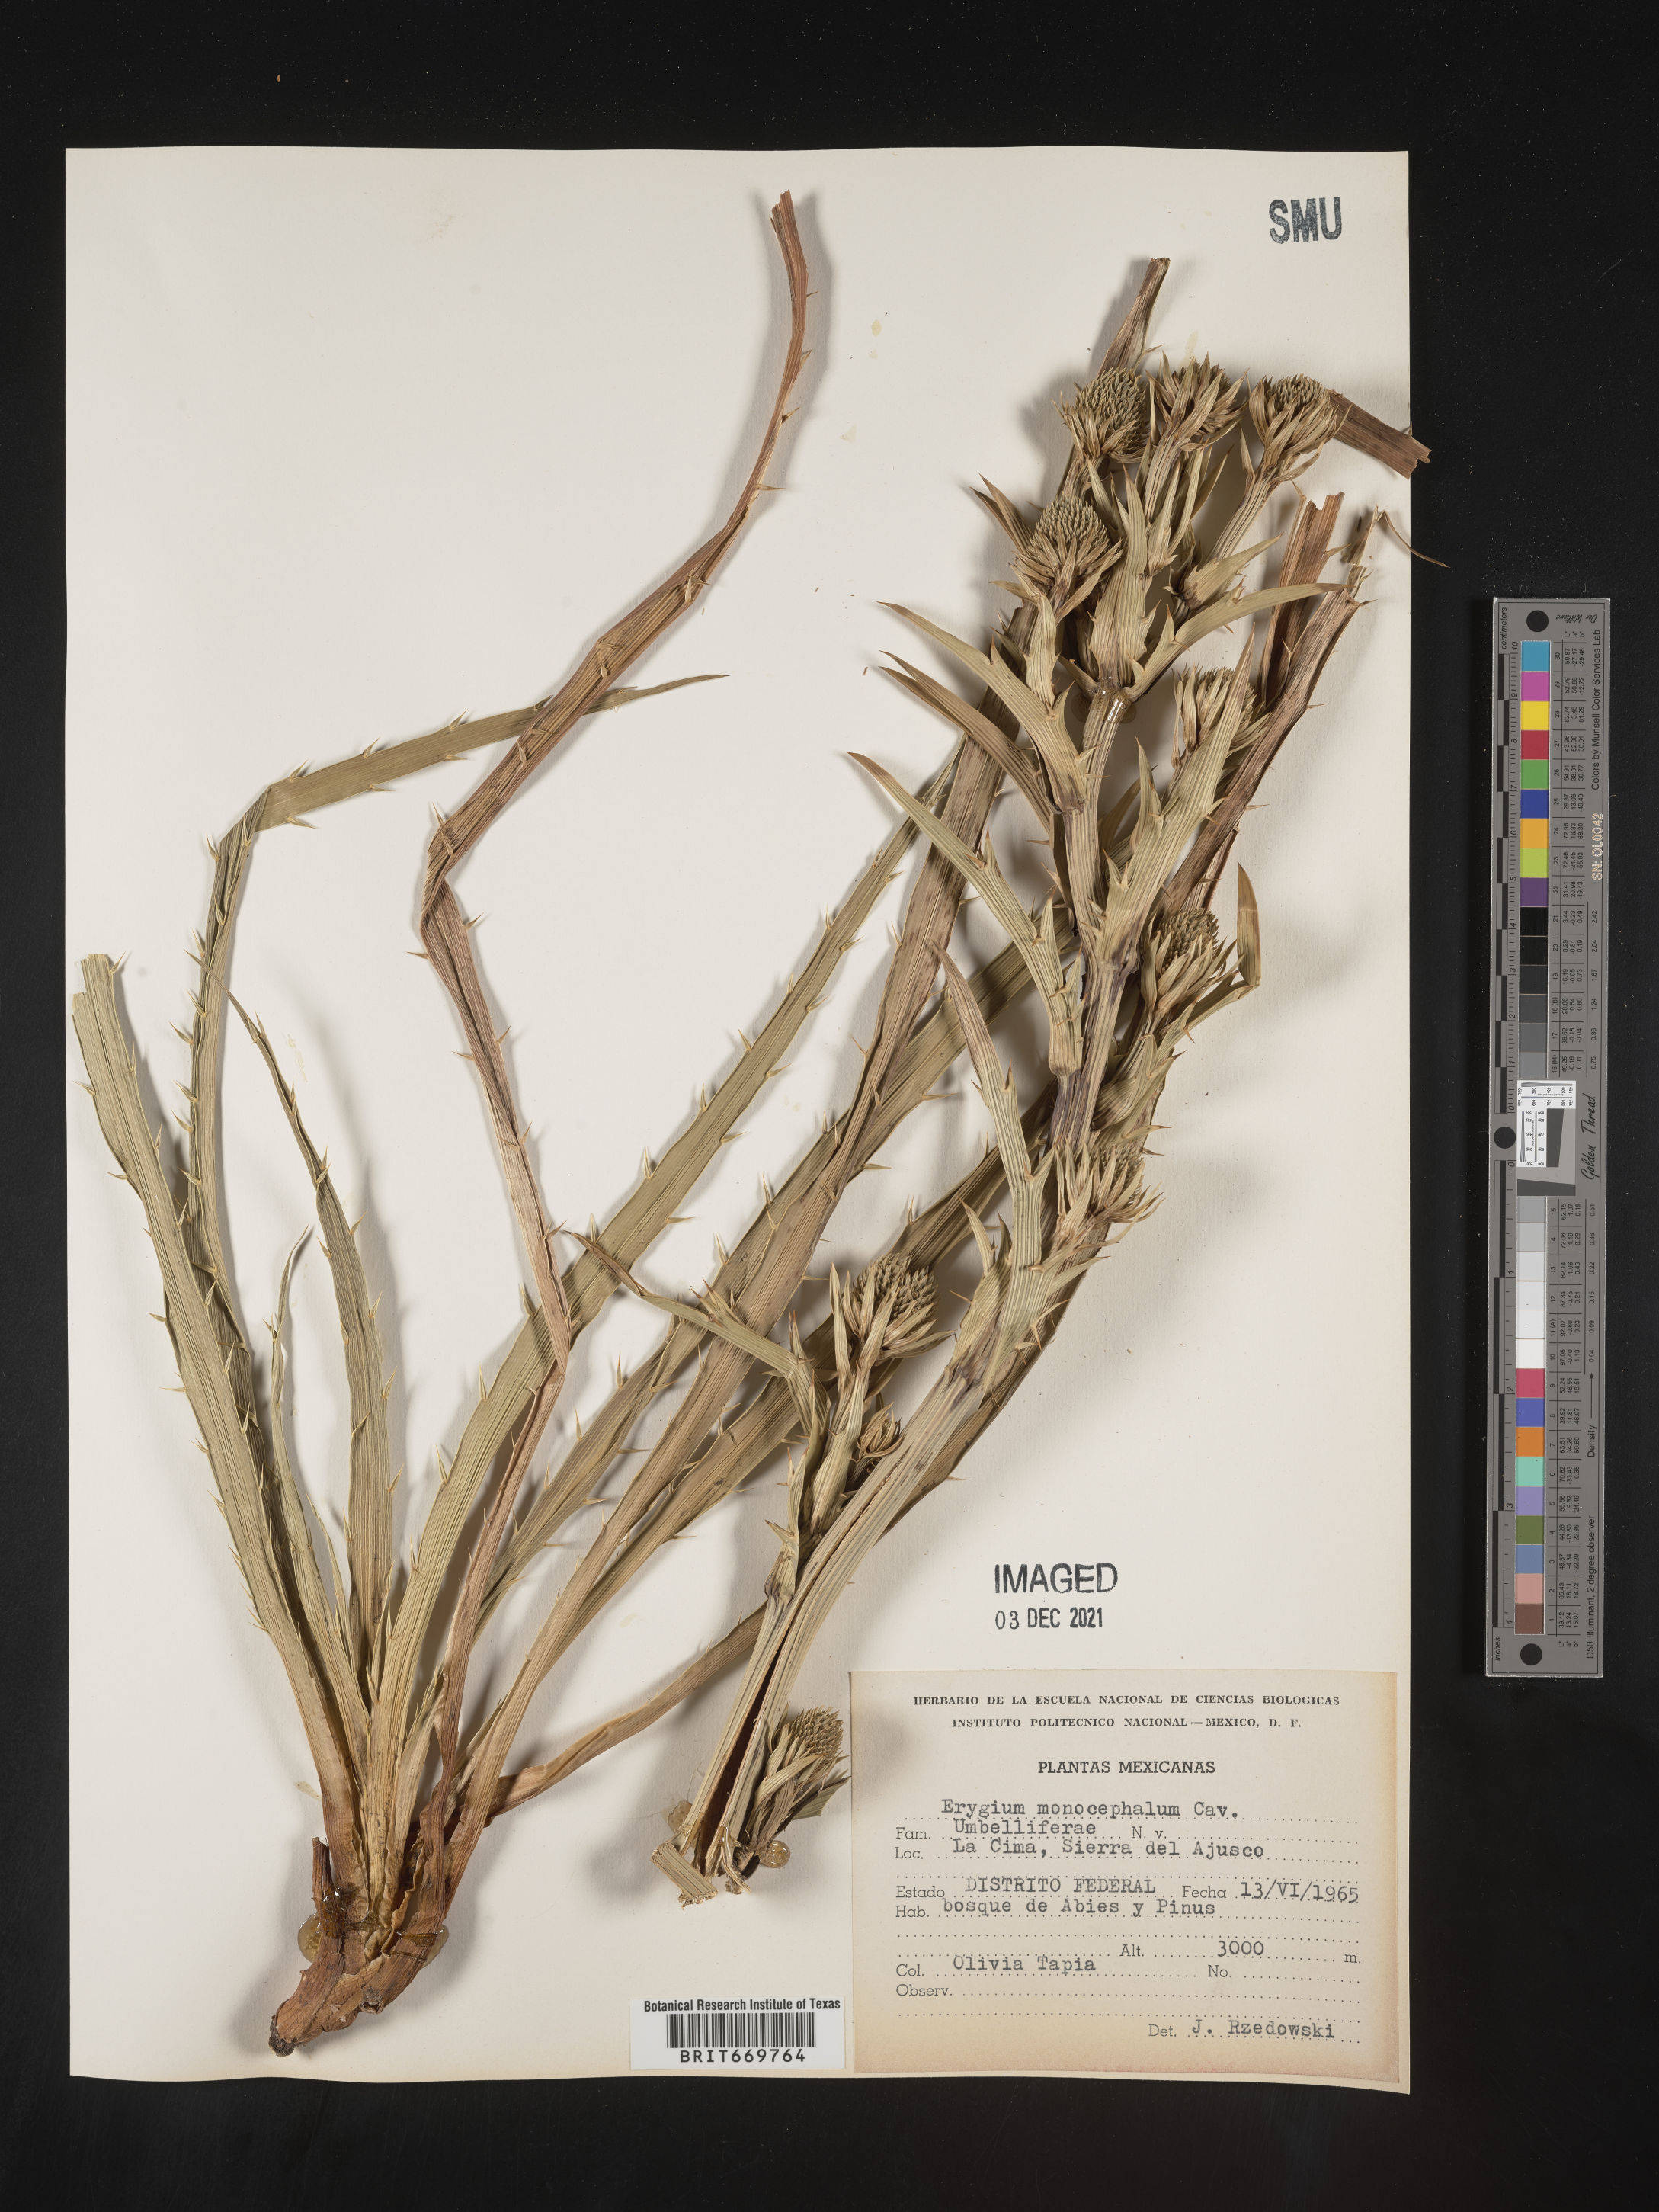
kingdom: Plantae
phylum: Tracheophyta
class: Magnoliopsida
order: Apiales
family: Apiaceae
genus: Eryngium
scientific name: Eryngium
